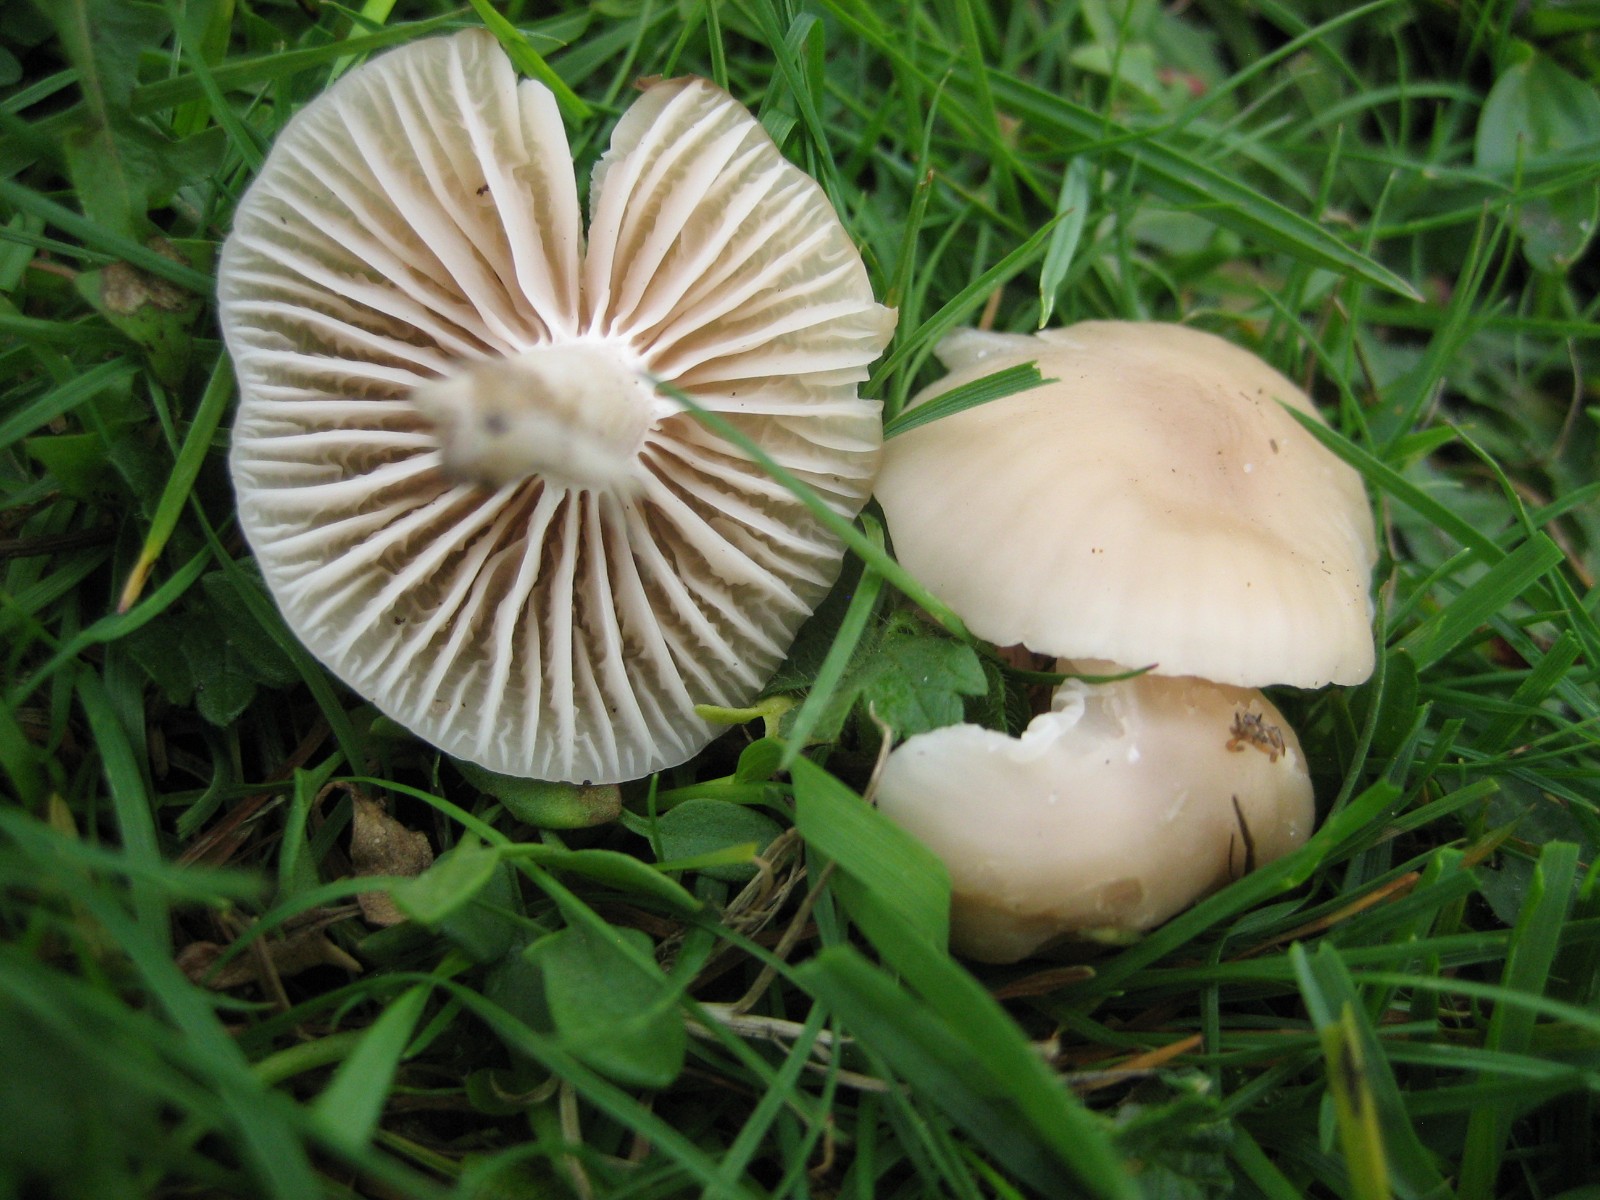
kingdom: Fungi
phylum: Basidiomycota
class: Agaricomycetes
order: Agaricales
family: Hygrophoraceae
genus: Cuphophyllus
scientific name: Cuphophyllus russocoriaceus
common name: ruslæder-vokshat
